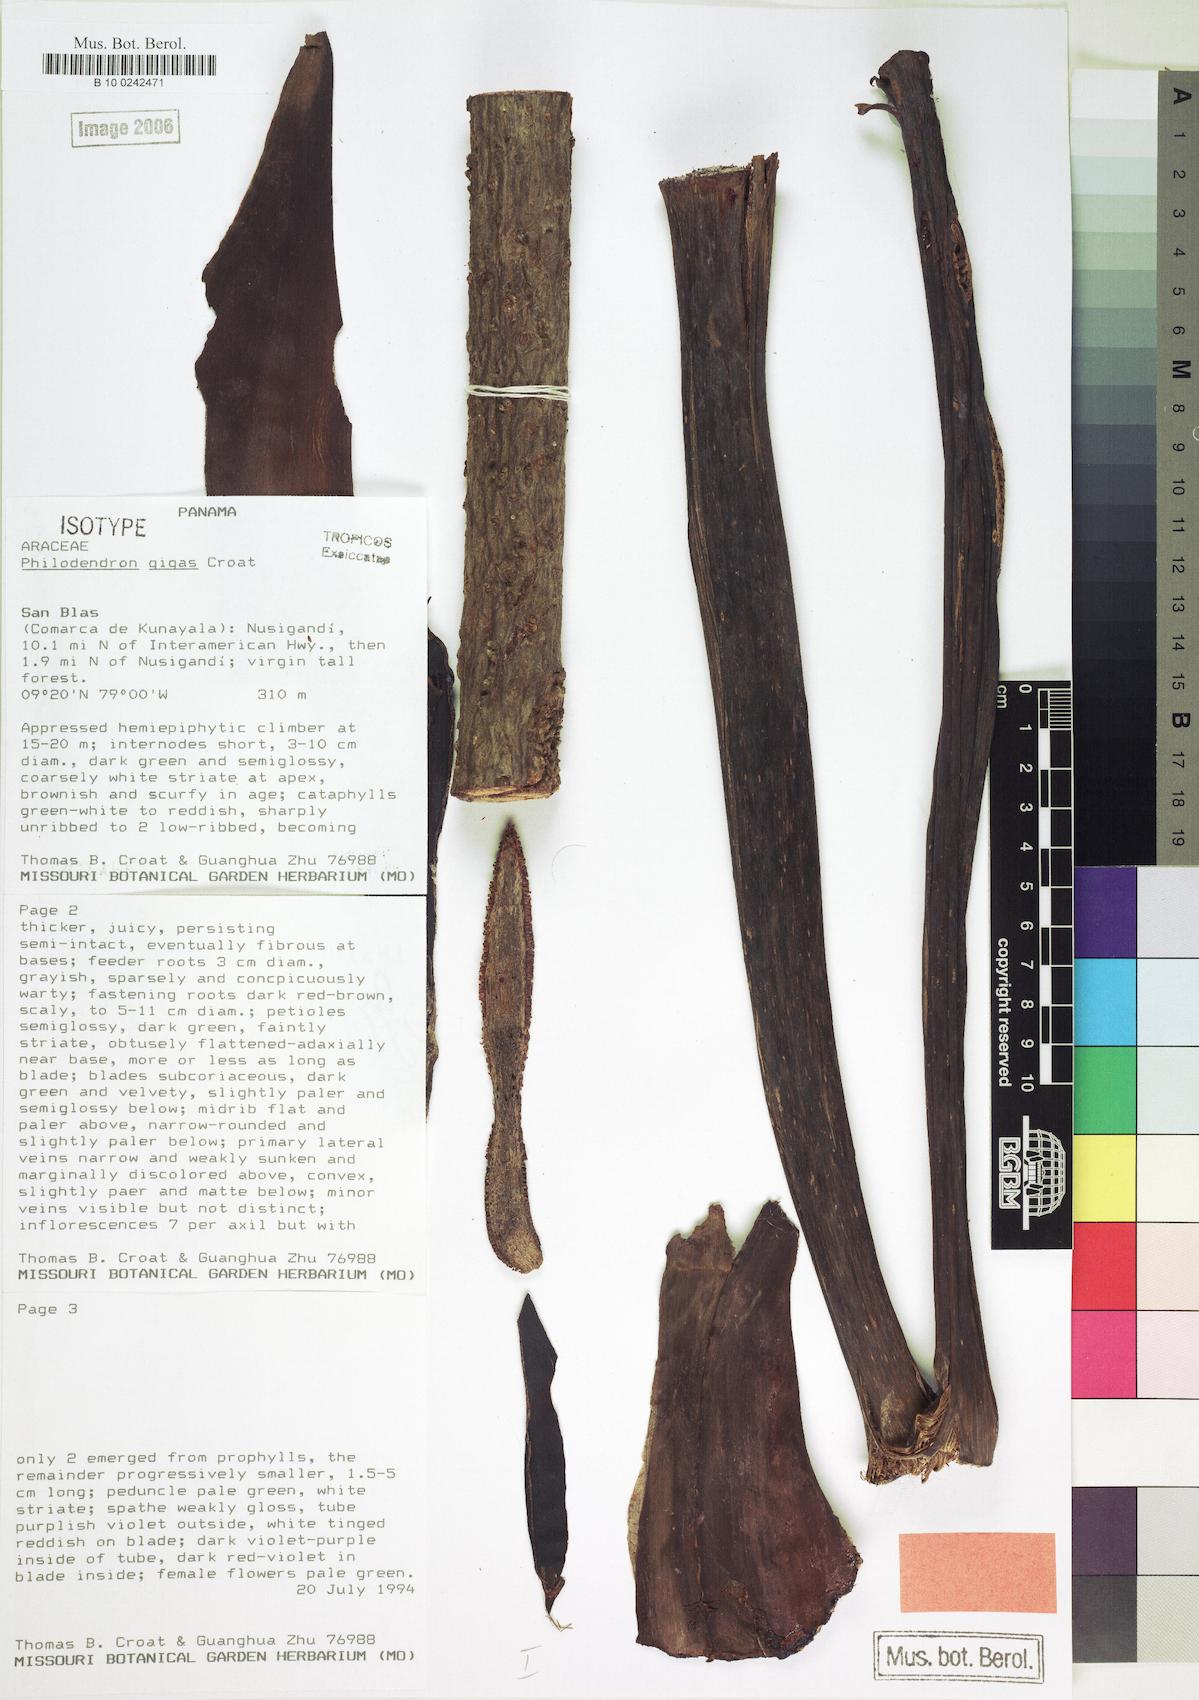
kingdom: Plantae
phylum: Tracheophyta
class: Liliopsida
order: Alismatales
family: Araceae
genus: Philodendron
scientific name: Philodendron gigas
